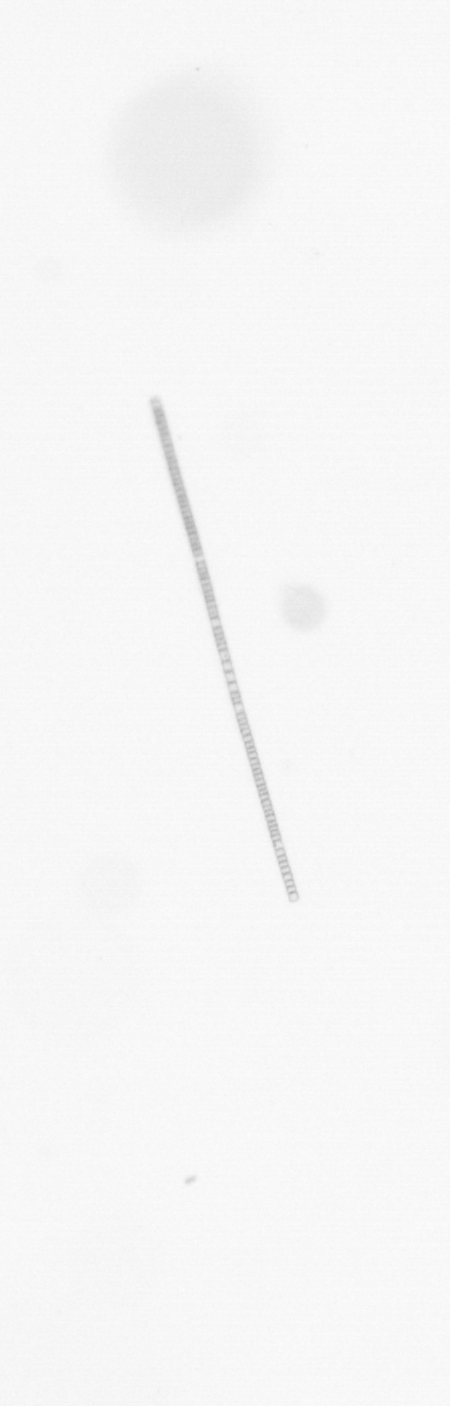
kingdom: Chromista
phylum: Ochrophyta
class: Bacillariophyceae
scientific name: Bacillariophyceae
